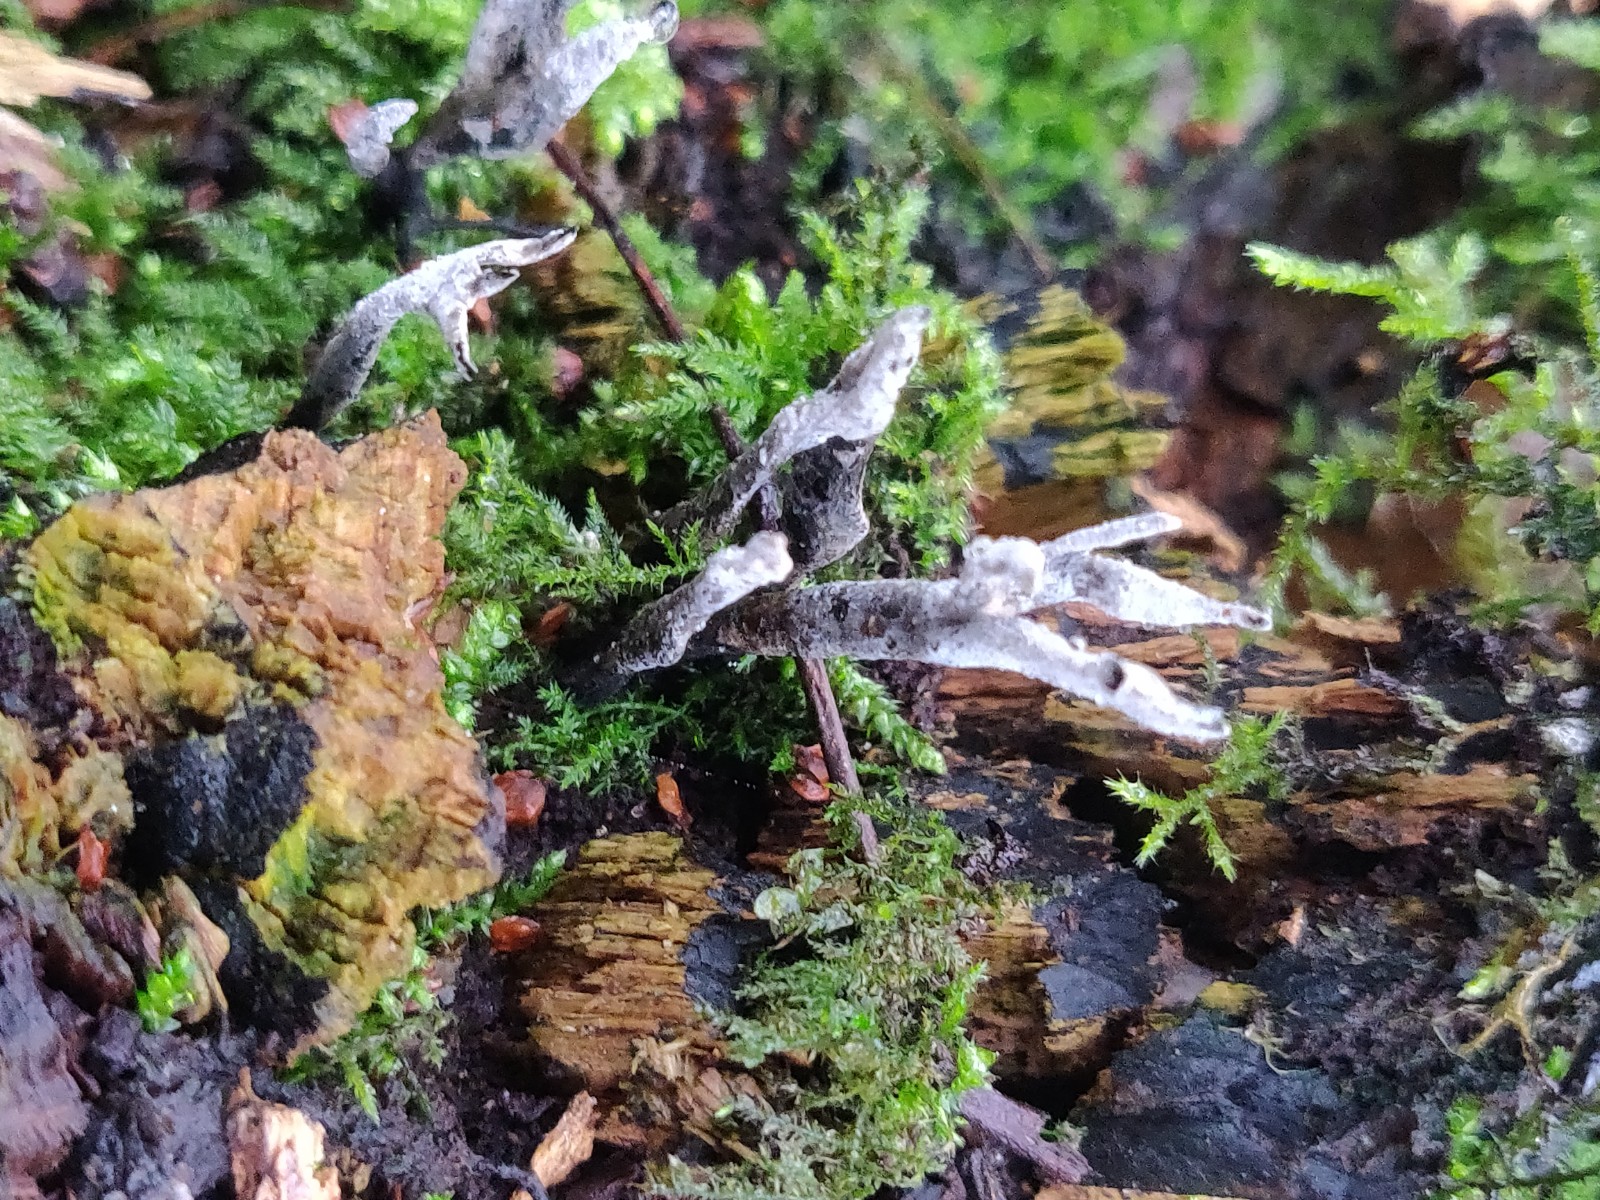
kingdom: Fungi
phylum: Ascomycota
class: Sordariomycetes
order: Xylariales
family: Xylariaceae
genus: Xylaria
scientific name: Xylaria hypoxylon
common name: grenet stødsvamp
